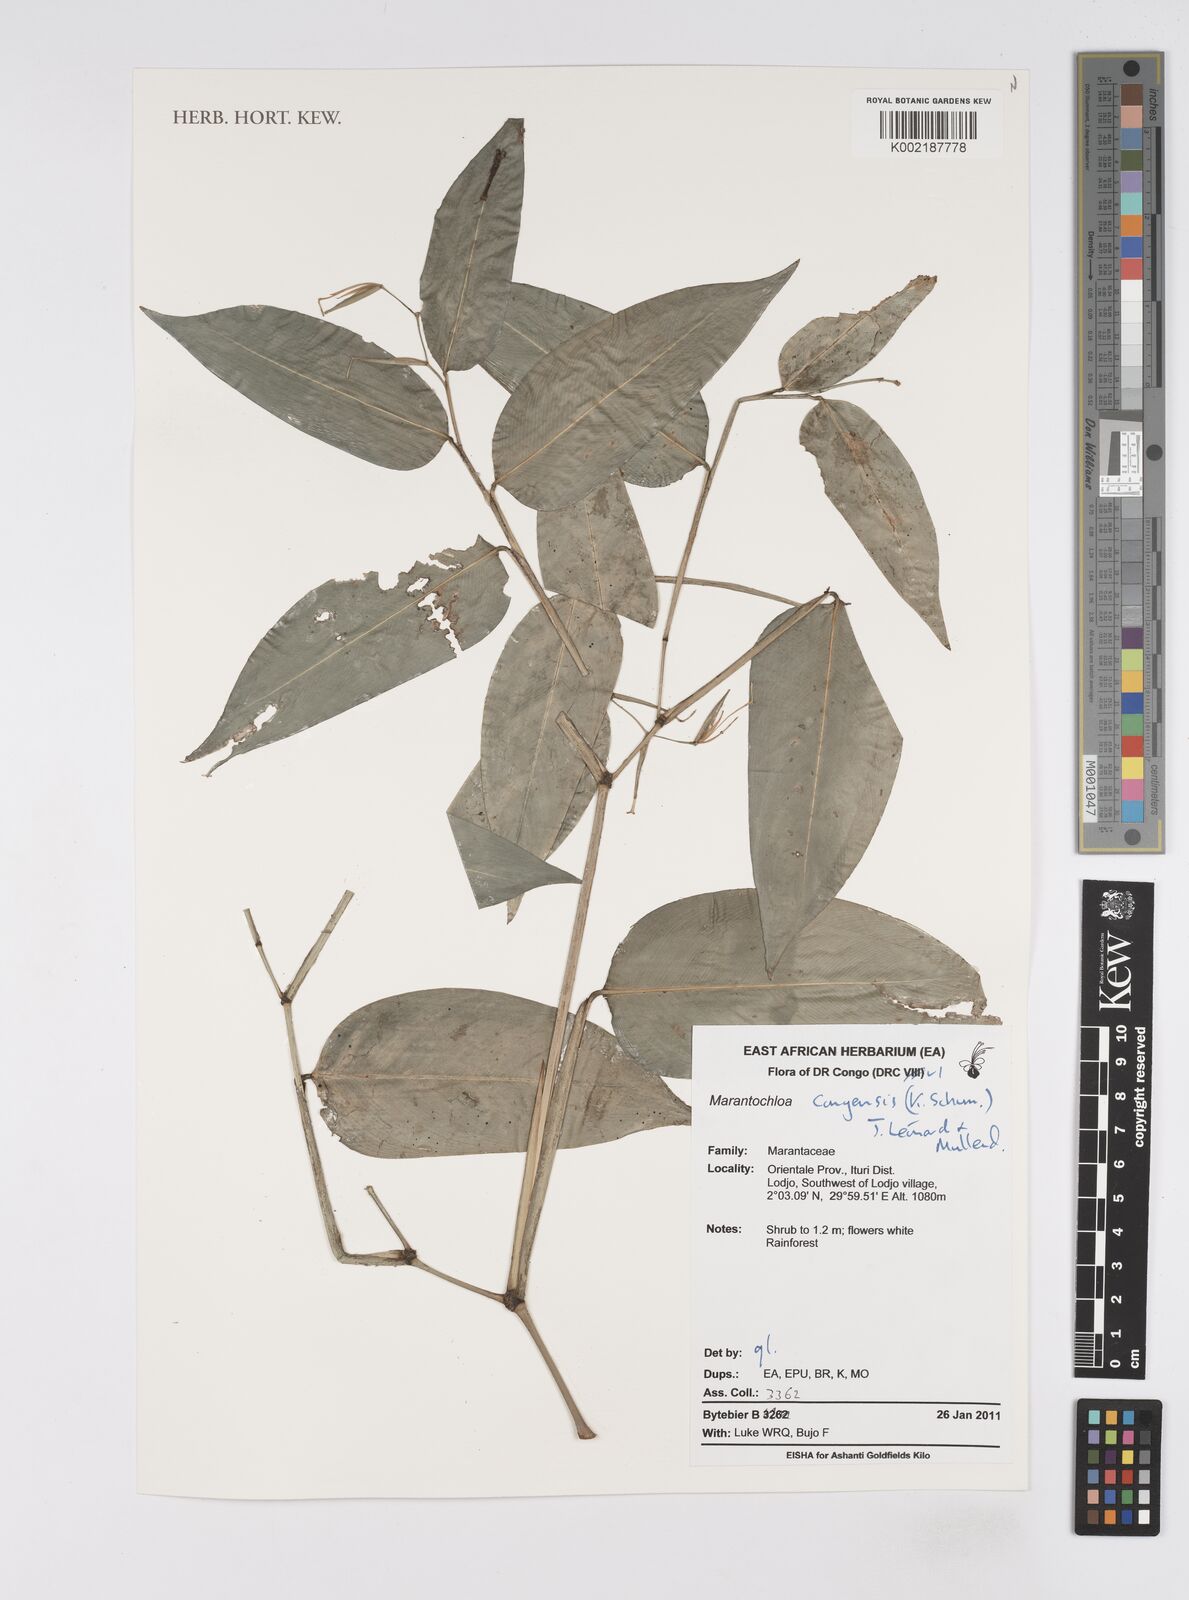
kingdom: Plantae
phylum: Tracheophyta
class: Liliopsida
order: Zingiberales
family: Marantaceae
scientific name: Marantaceae
